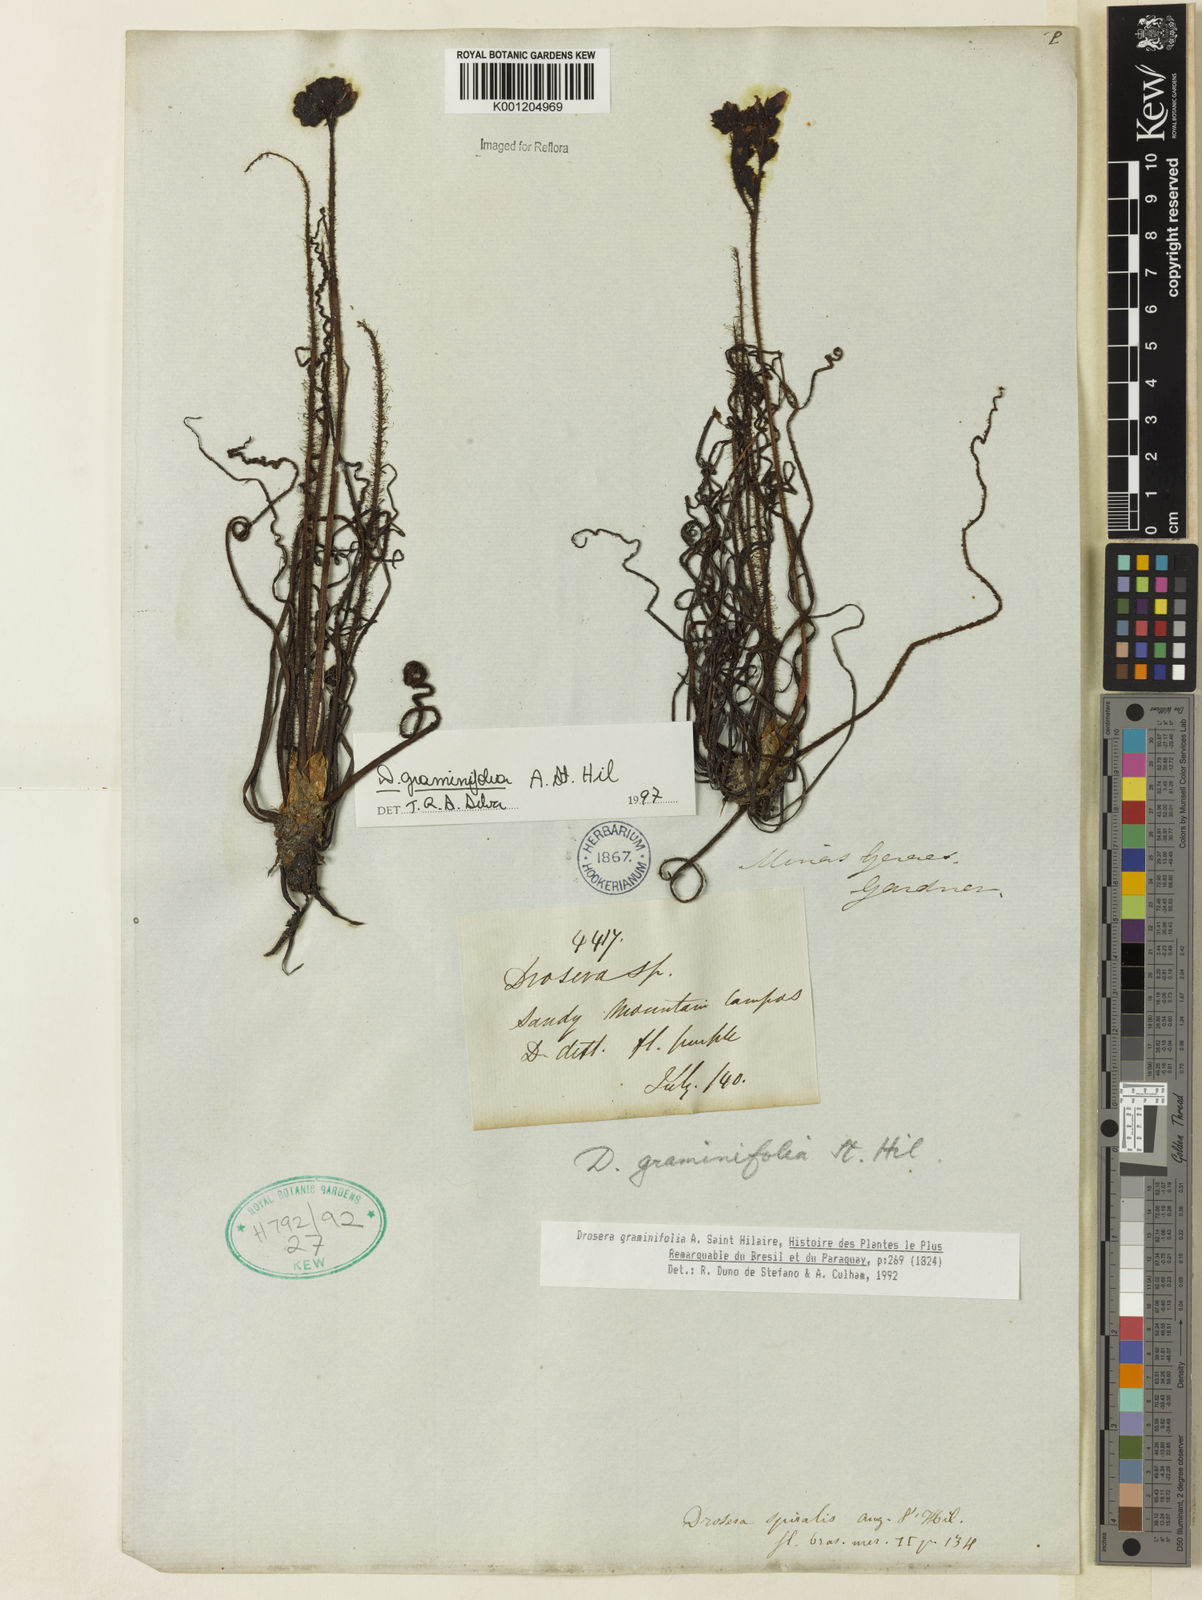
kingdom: Plantae
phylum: Tracheophyta
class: Magnoliopsida
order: Caryophyllales
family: Droseraceae
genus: Drosera
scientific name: Drosera graminifolia
